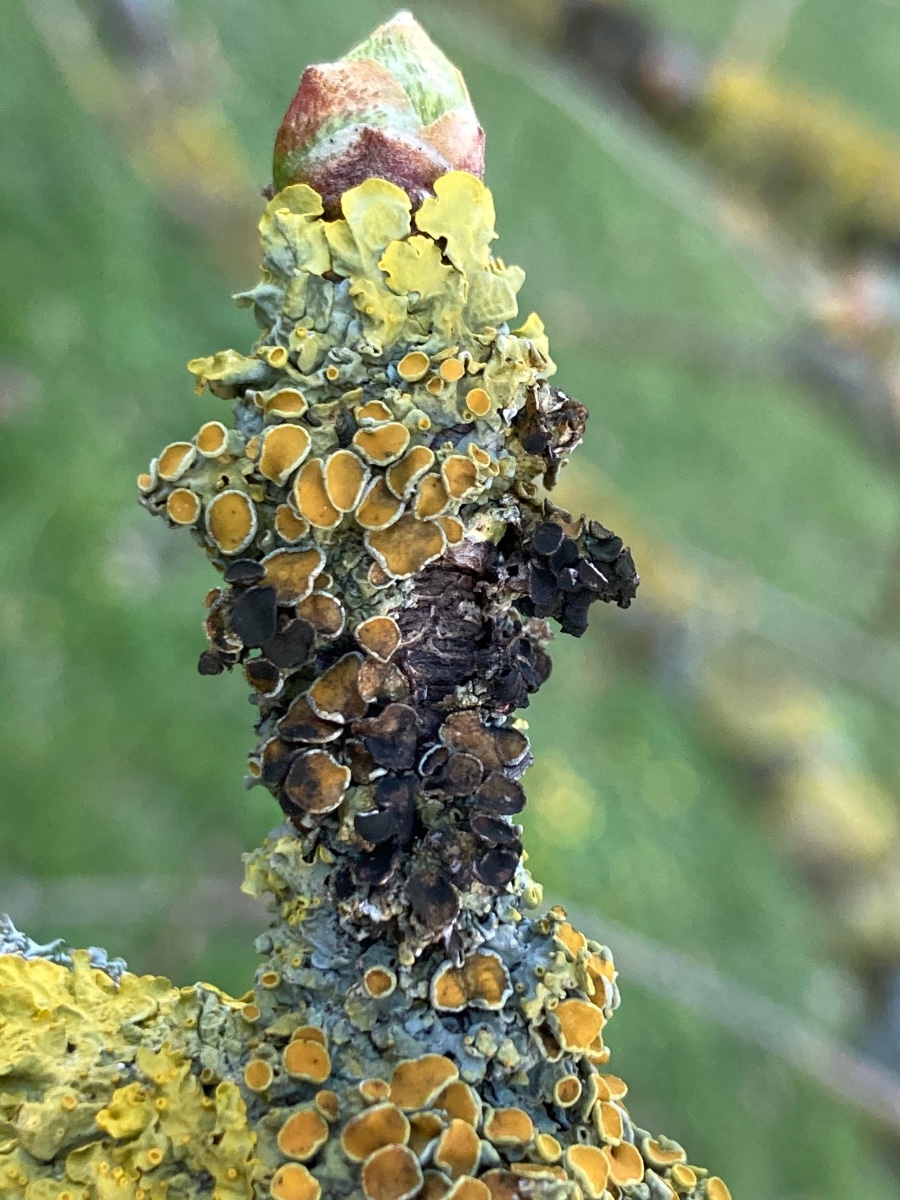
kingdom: Fungi
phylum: Ascomycota
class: Dothideomycetes
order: Mycosphaerellales
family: Teratosphaeriaceae
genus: Xanthoriicola
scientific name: Xanthoriicola physciae
